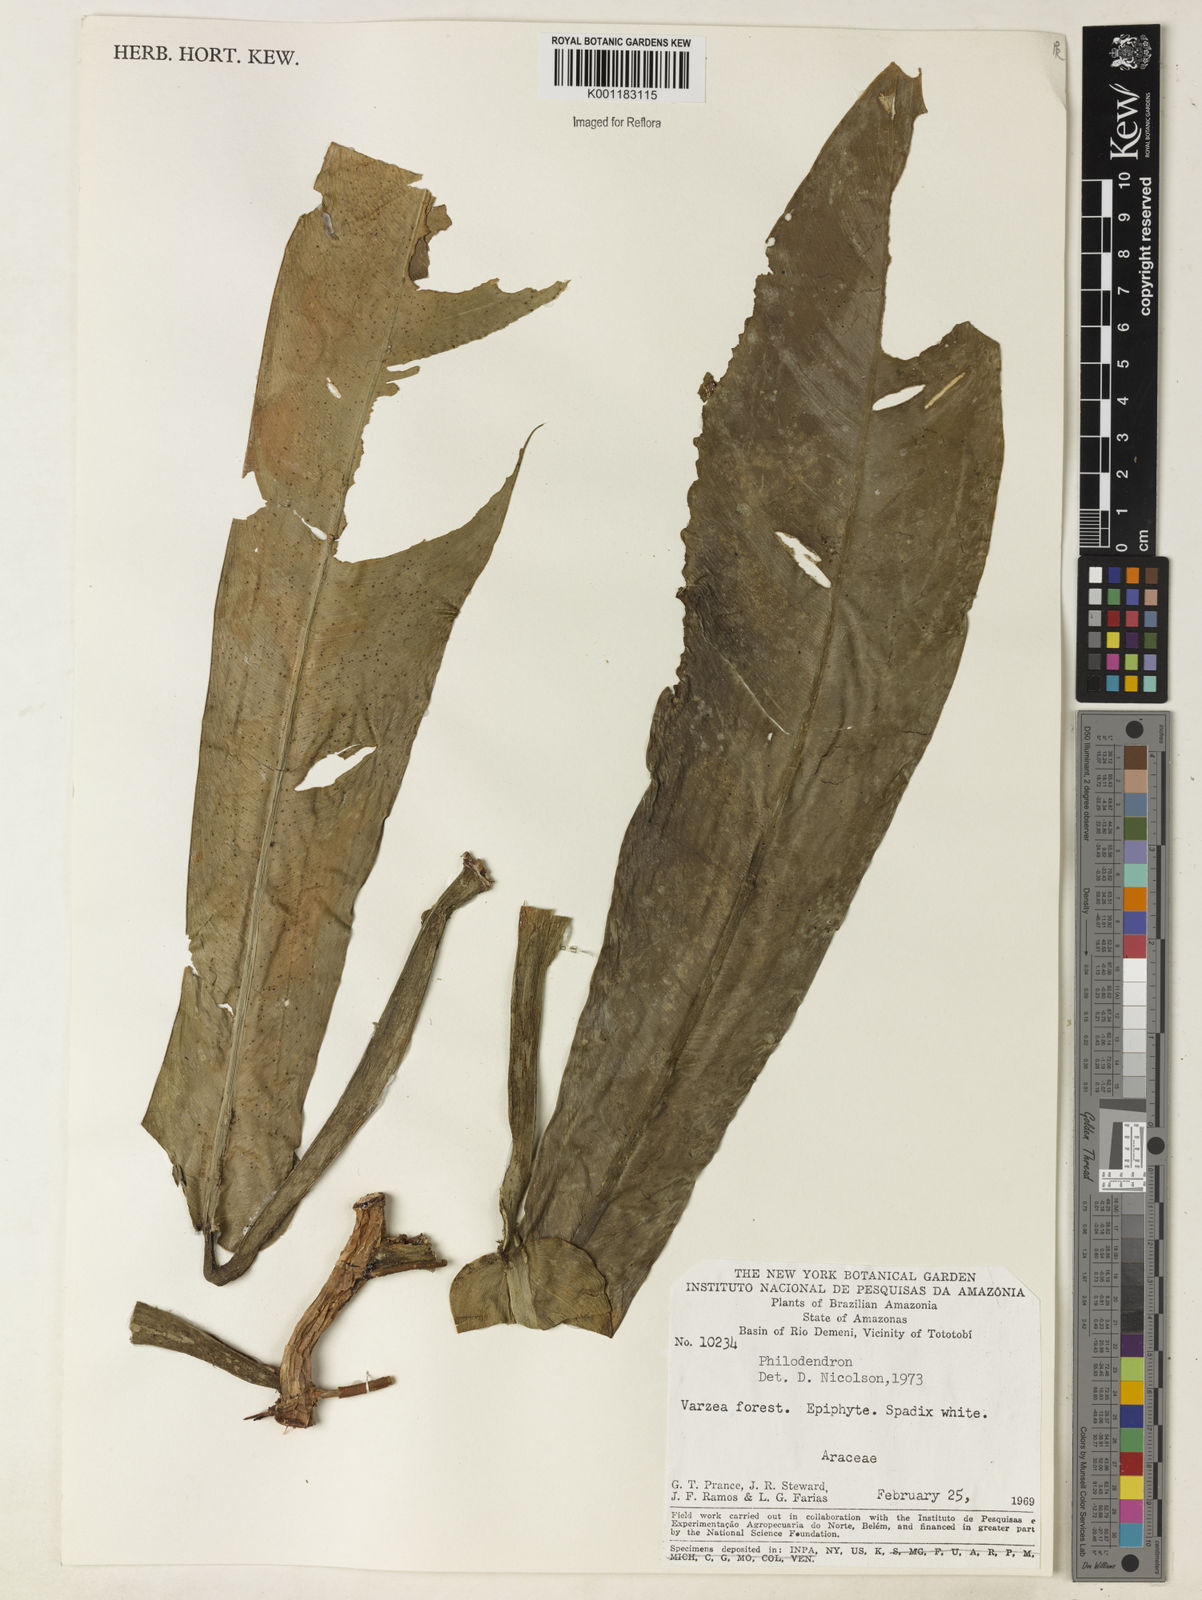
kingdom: Plantae
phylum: Tracheophyta
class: Liliopsida
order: Alismatales
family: Araceae
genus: Philodendron
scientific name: Philodendron burle-marxii
